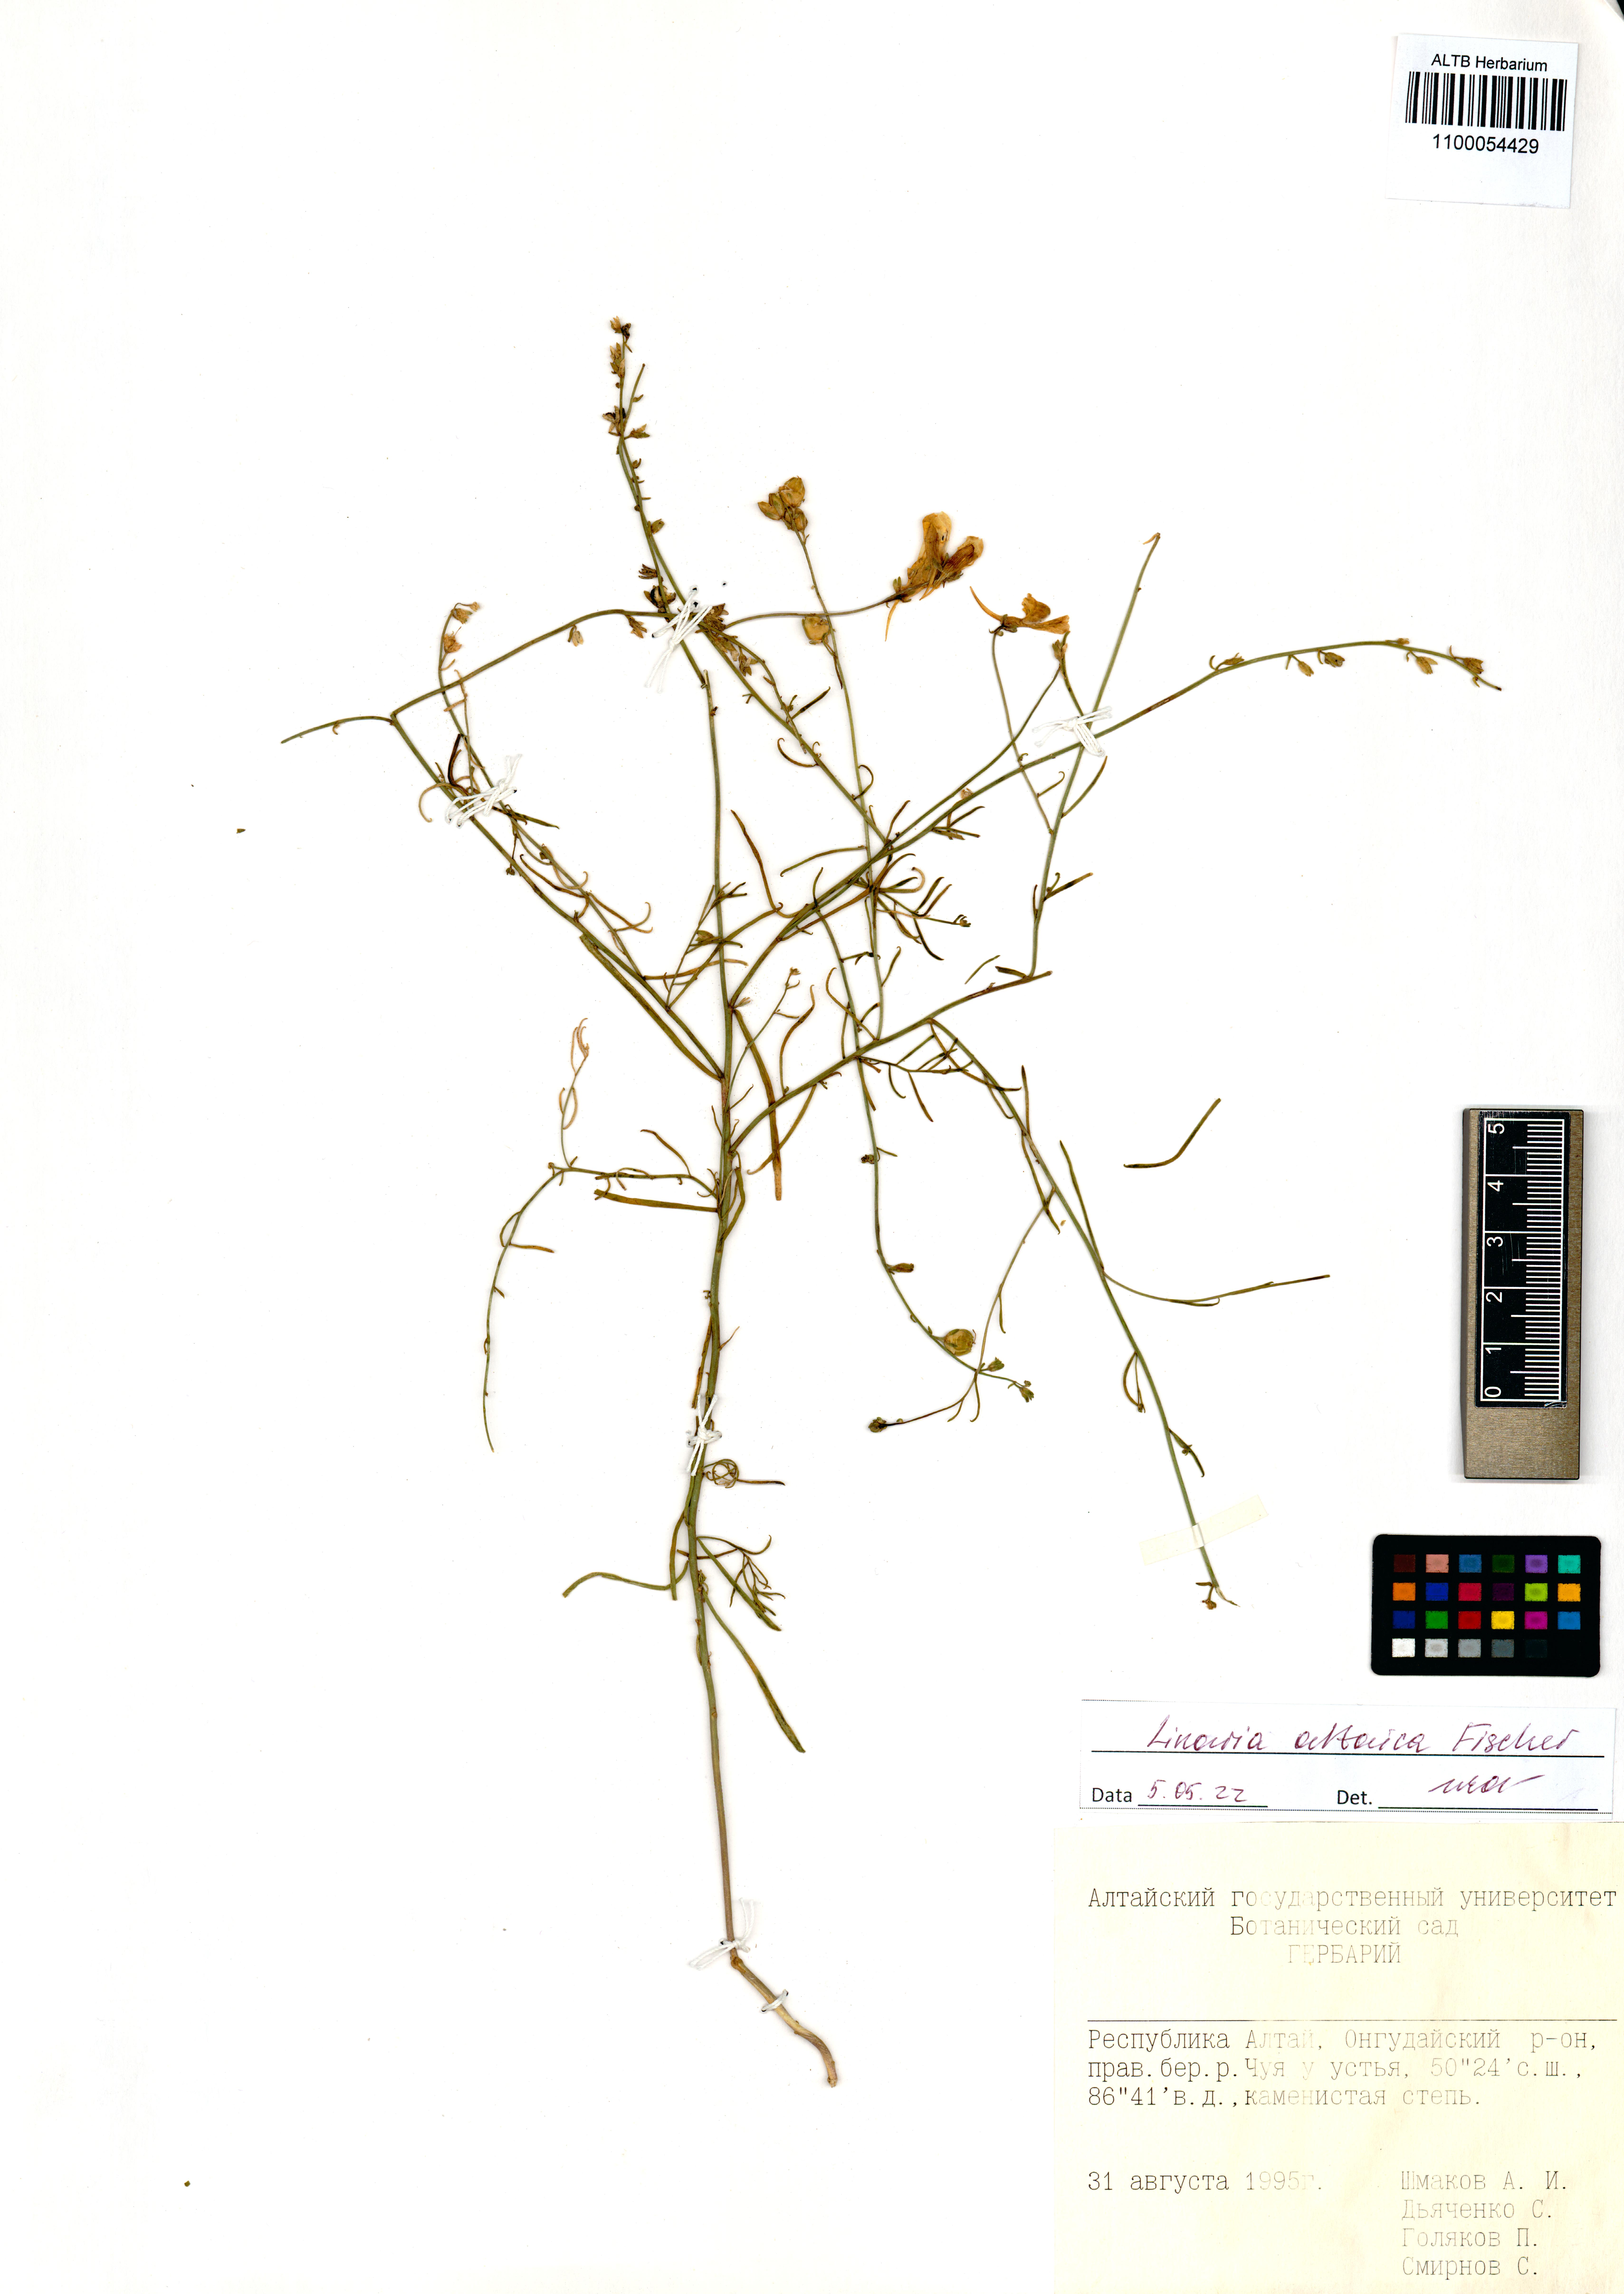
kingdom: Plantae
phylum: Tracheophyta
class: Magnoliopsida
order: Lamiales
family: Plantaginaceae
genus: Linaria
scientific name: Linaria altaica
